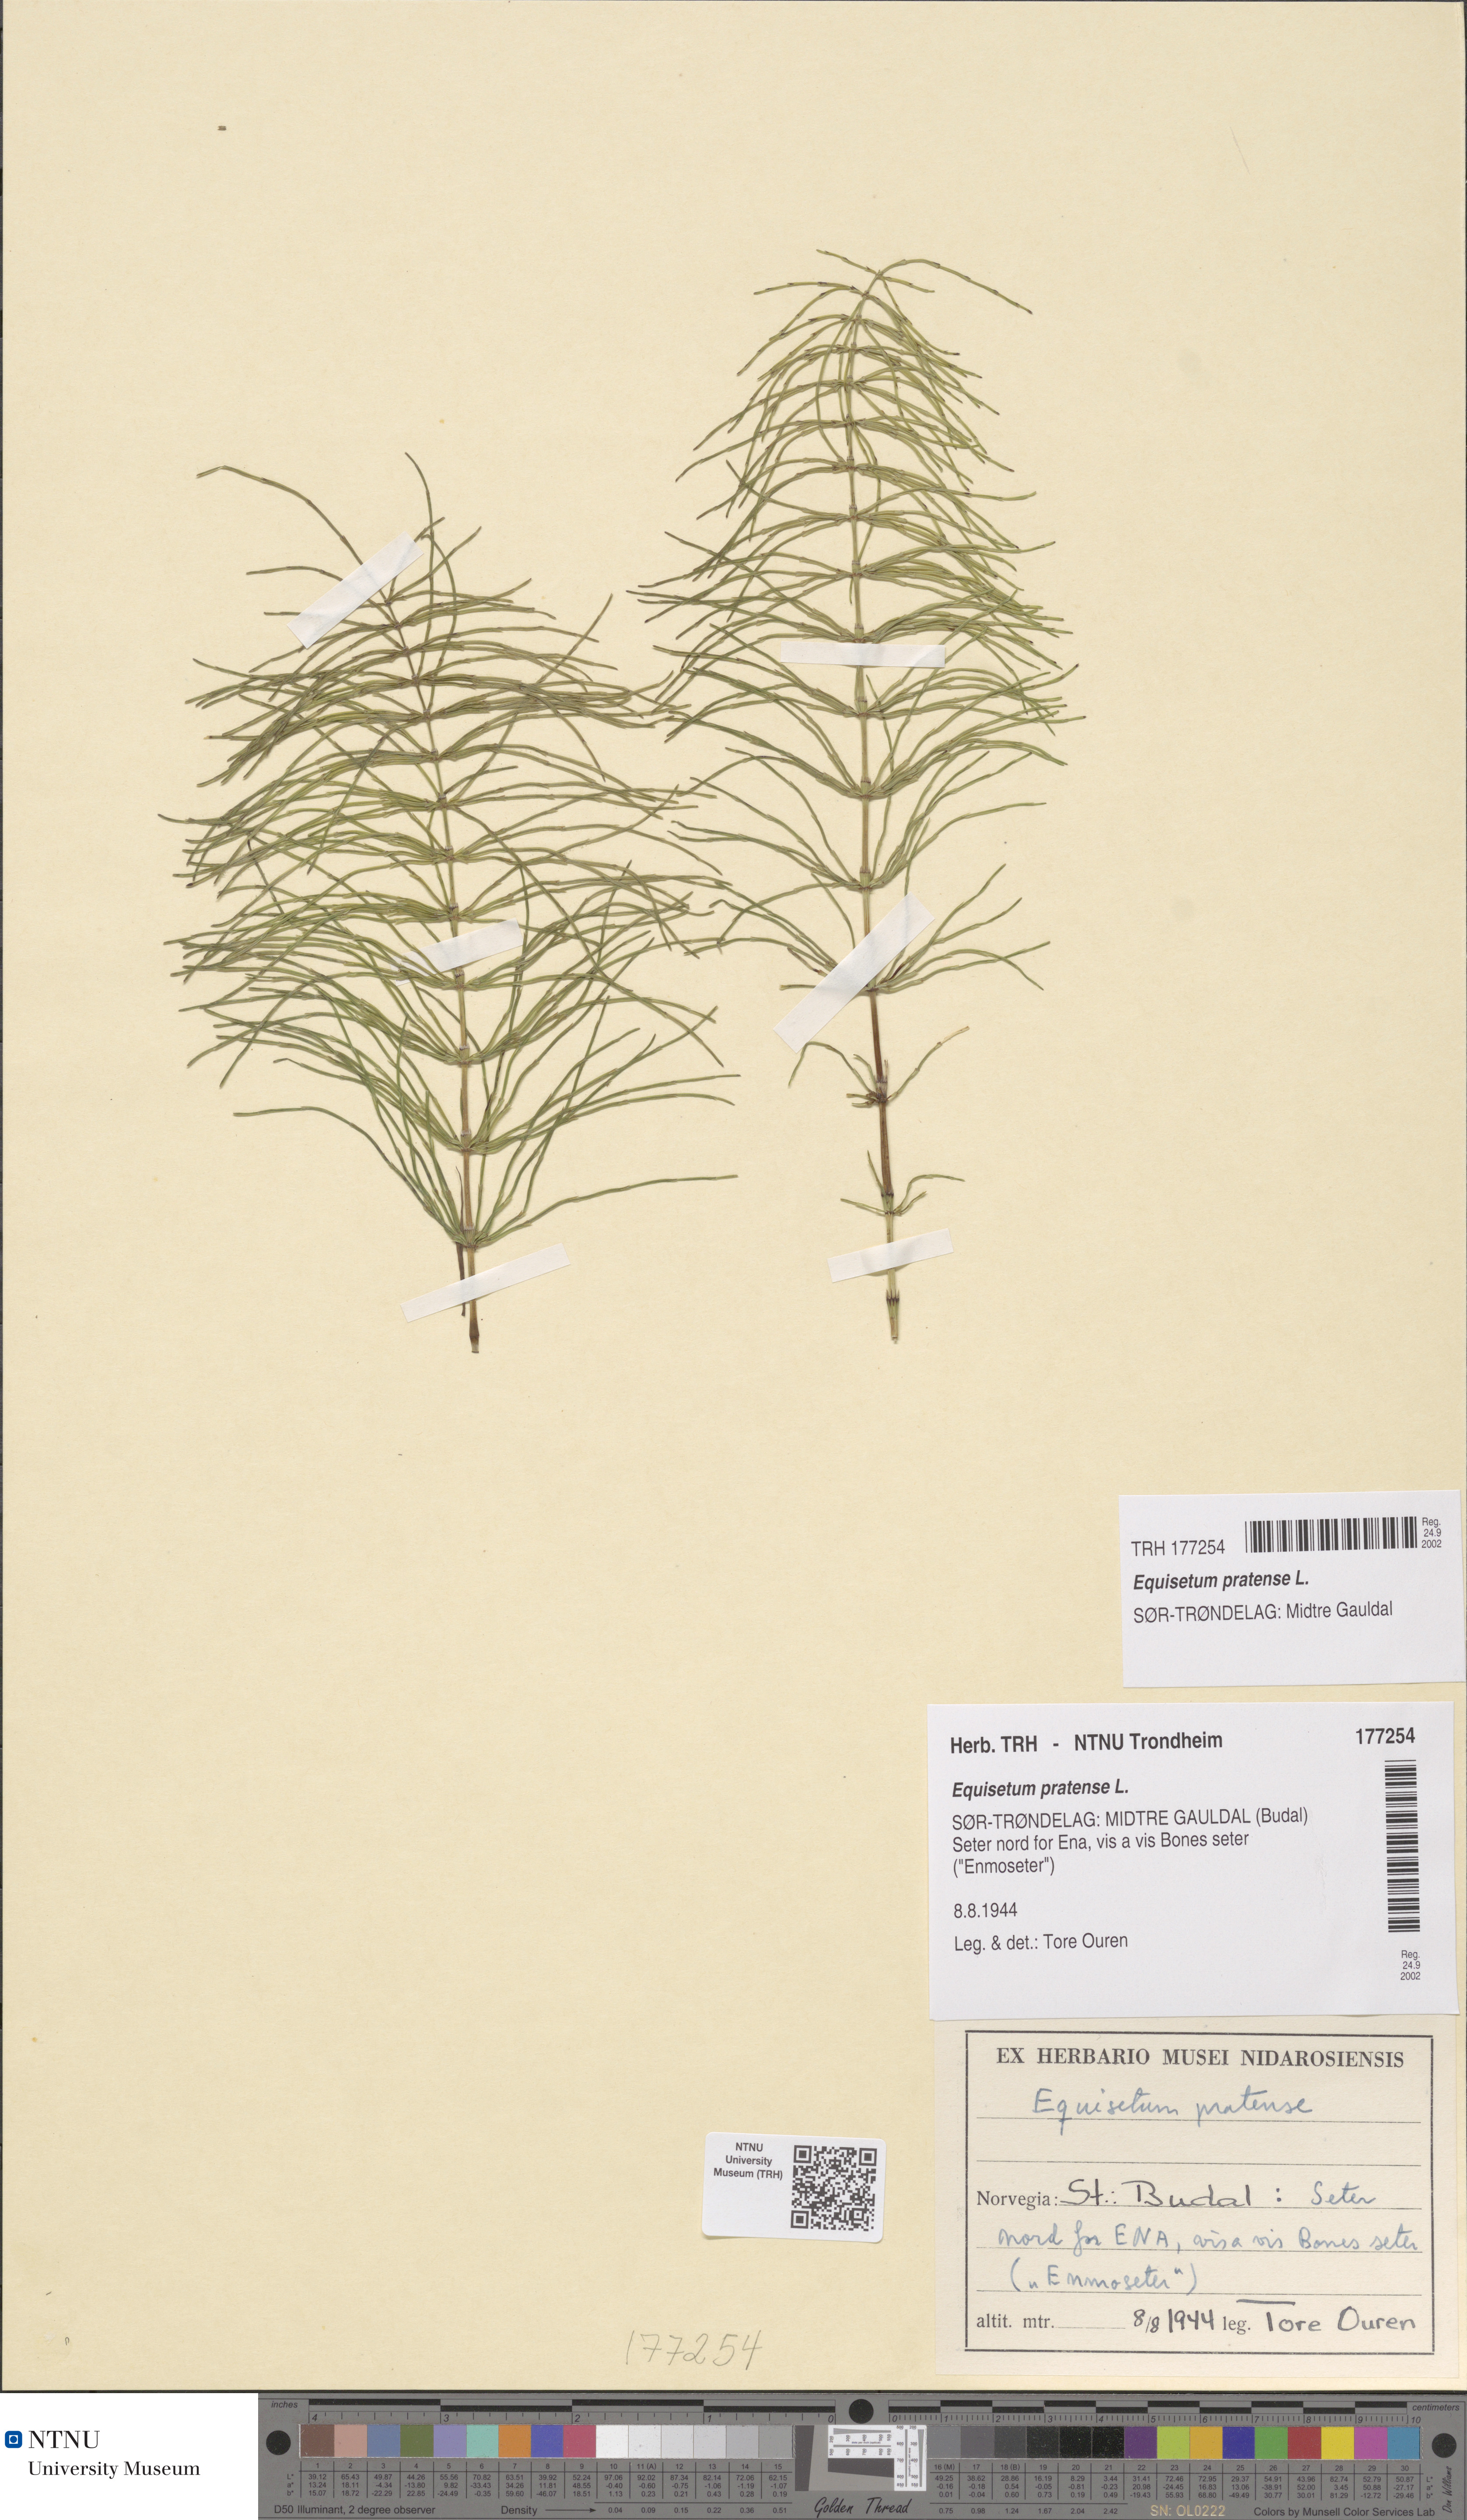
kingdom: Plantae
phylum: Tracheophyta
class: Polypodiopsida
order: Equisetales
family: Equisetaceae
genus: Equisetum
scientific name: Equisetum pratense
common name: Meadow horsetail
